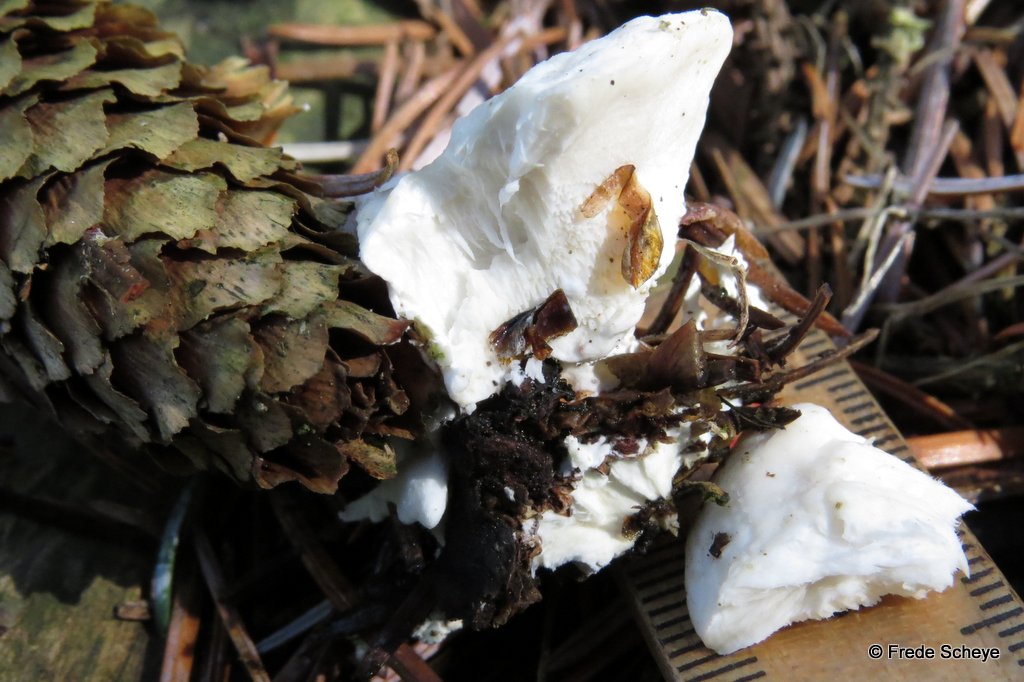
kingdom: Fungi
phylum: Basidiomycota
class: Agaricomycetes
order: Polyporales
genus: Amaropostia
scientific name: Amaropostia stiptica
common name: bitter kødporesvamp
